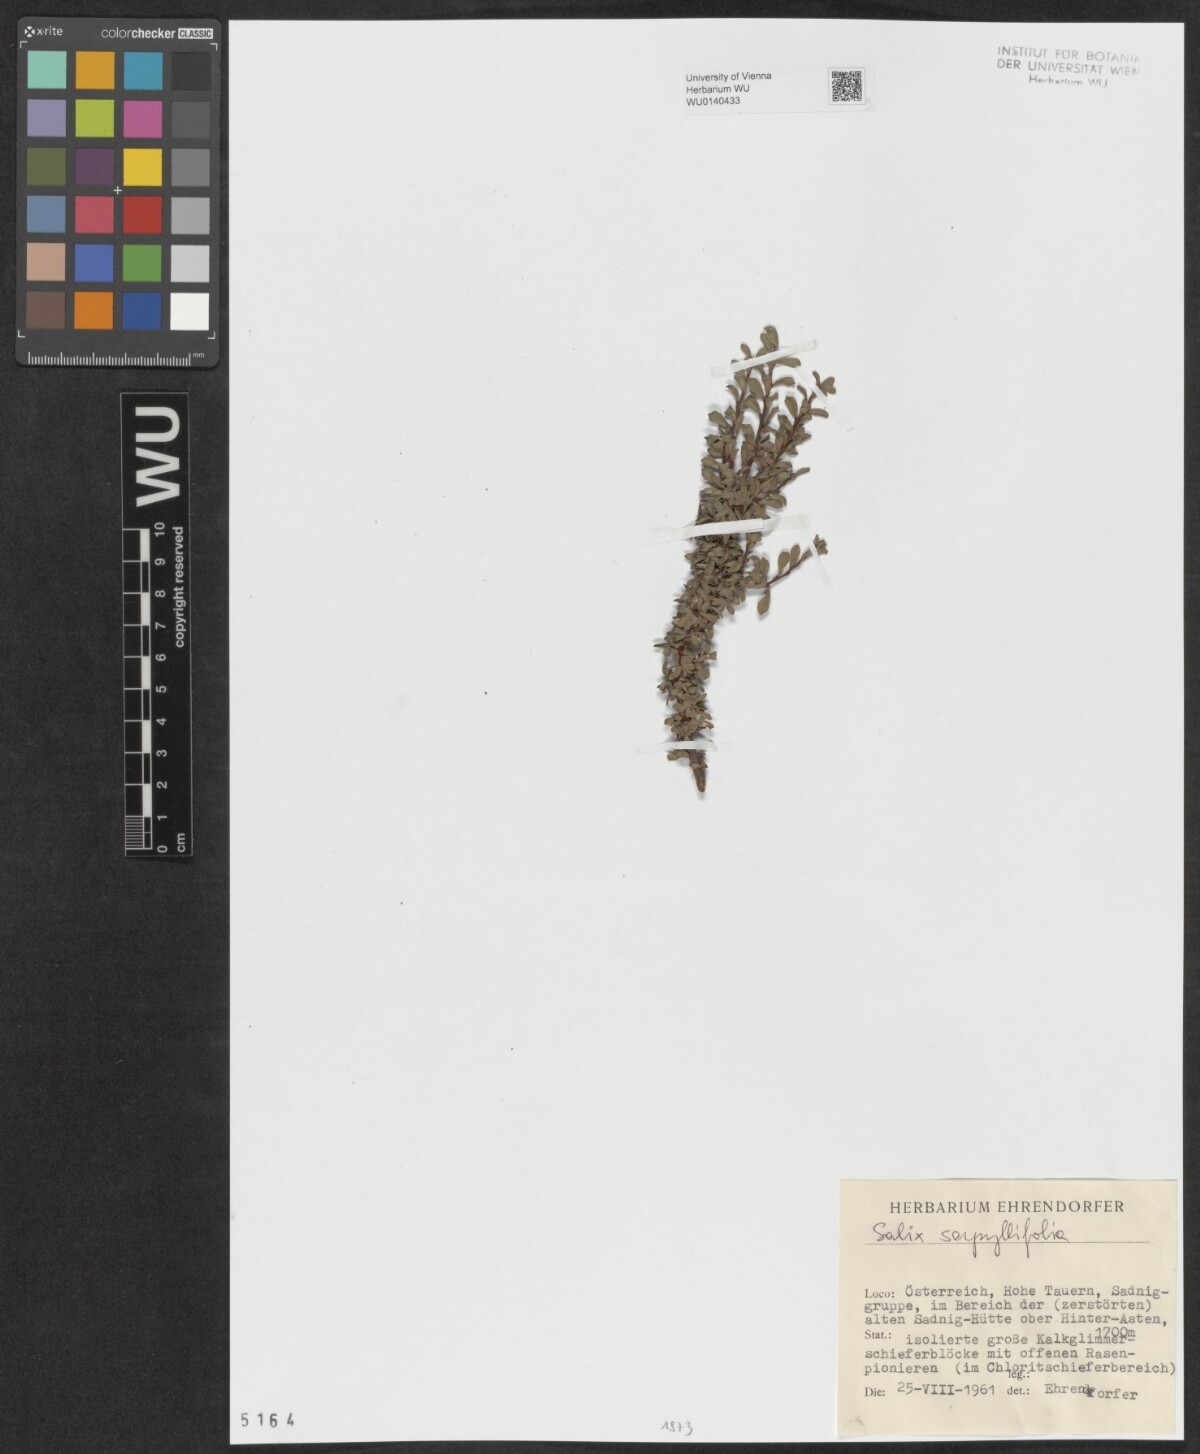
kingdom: Plantae
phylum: Tracheophyta
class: Magnoliopsida
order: Malpighiales
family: Salicaceae
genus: Salix
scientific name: Salix serpillifolia
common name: Thyme-leaf willow
